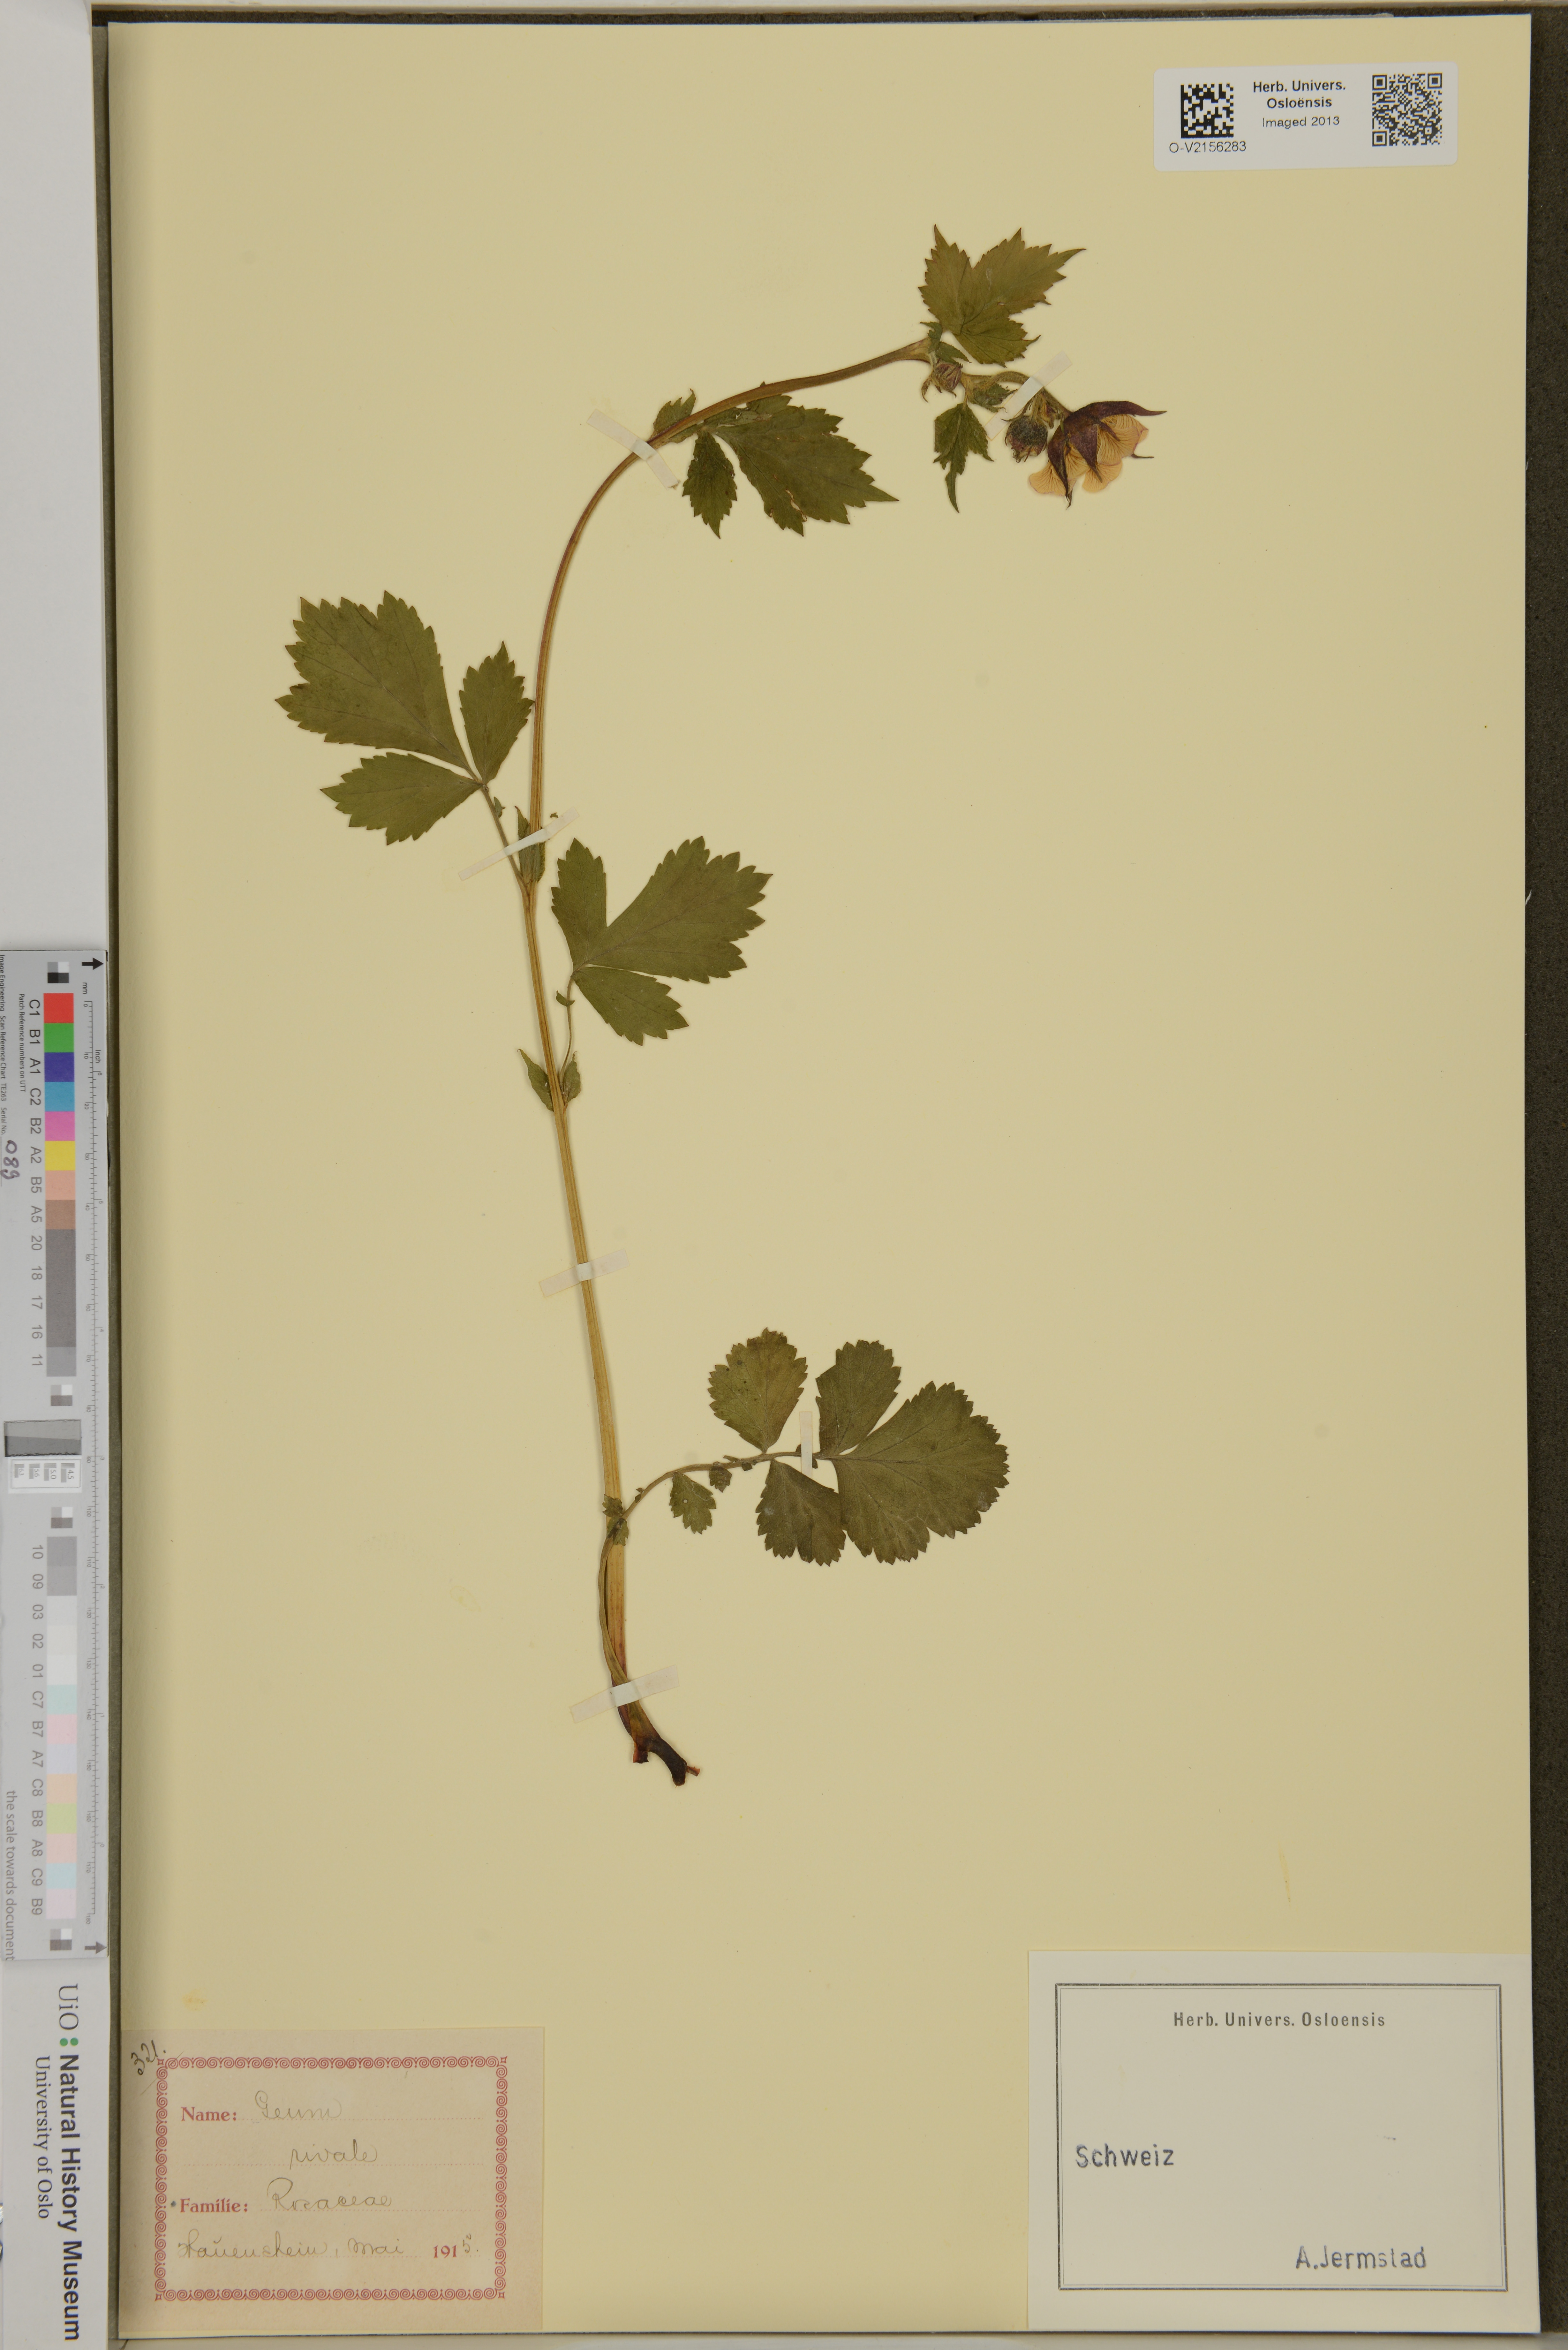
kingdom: Plantae
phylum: Tracheophyta
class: Magnoliopsida
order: Rosales
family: Rosaceae
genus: Geum
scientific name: Geum virginianum
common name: Cream avens
